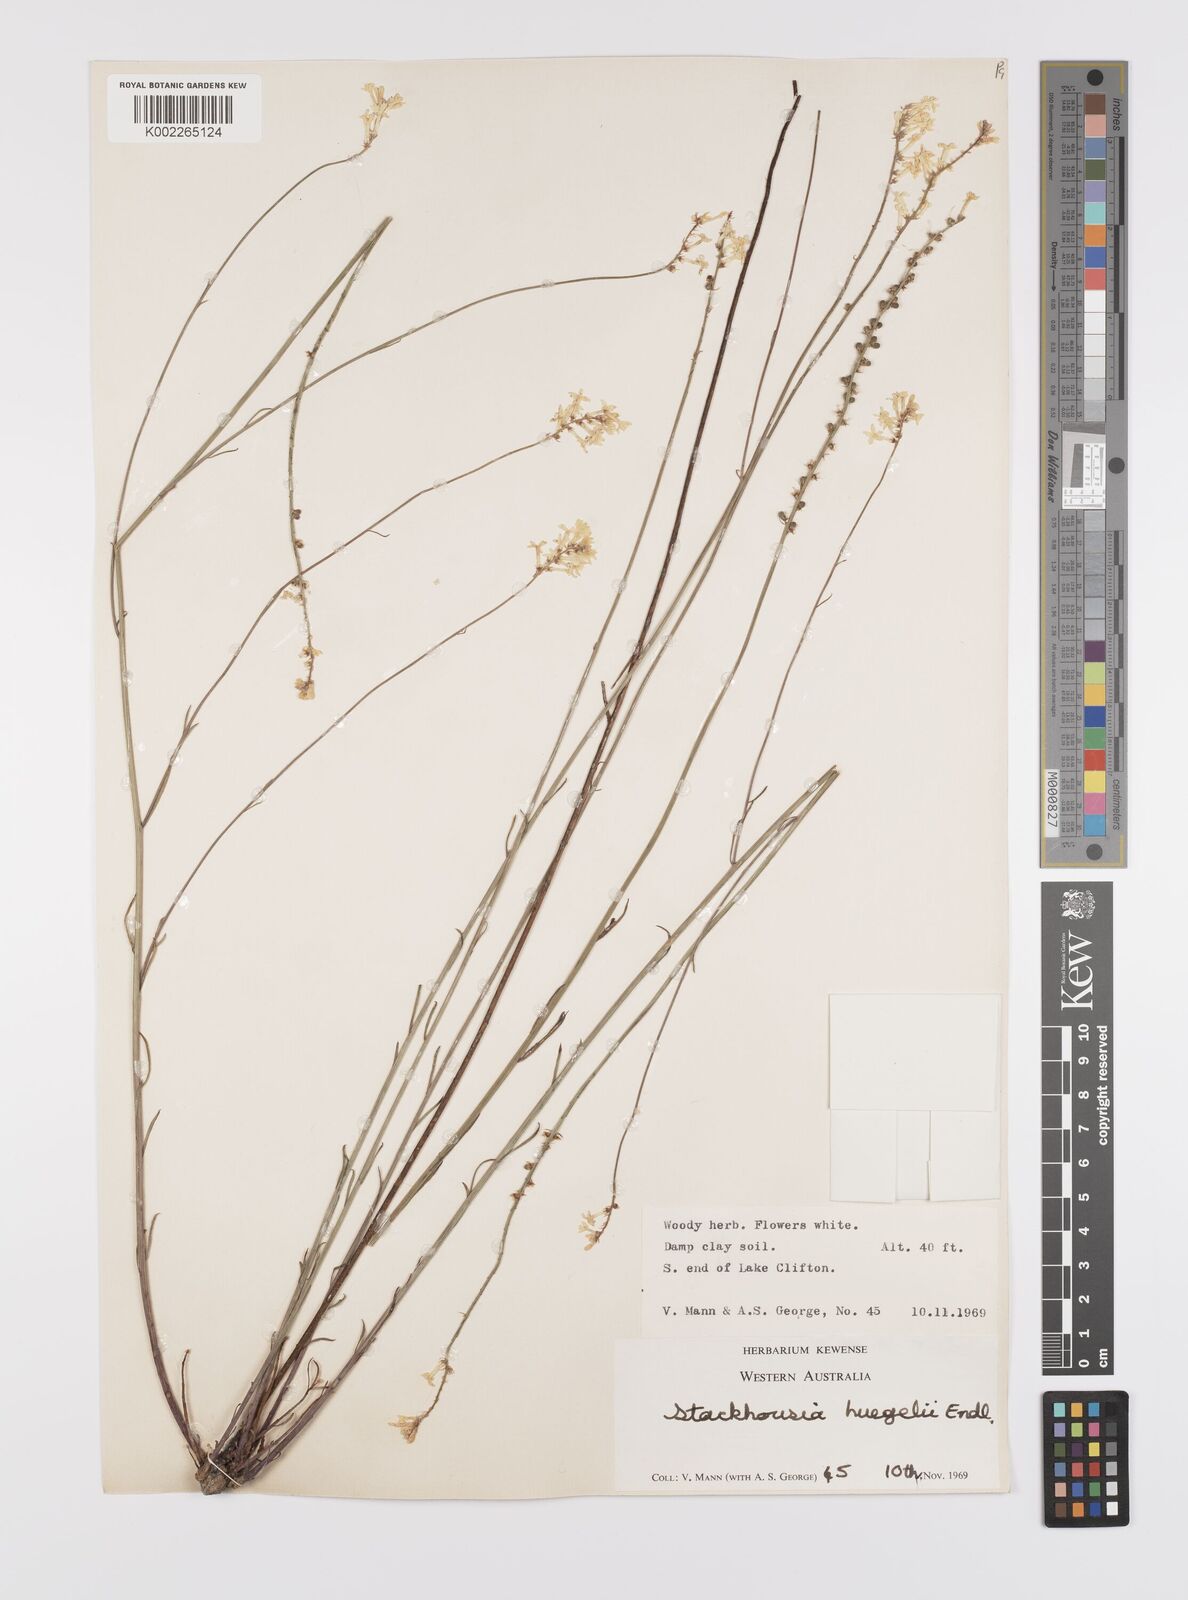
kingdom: Plantae
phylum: Tracheophyta
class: Magnoliopsida
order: Celastrales
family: Celastraceae
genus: Stackhousia
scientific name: Stackhousia monogyna
